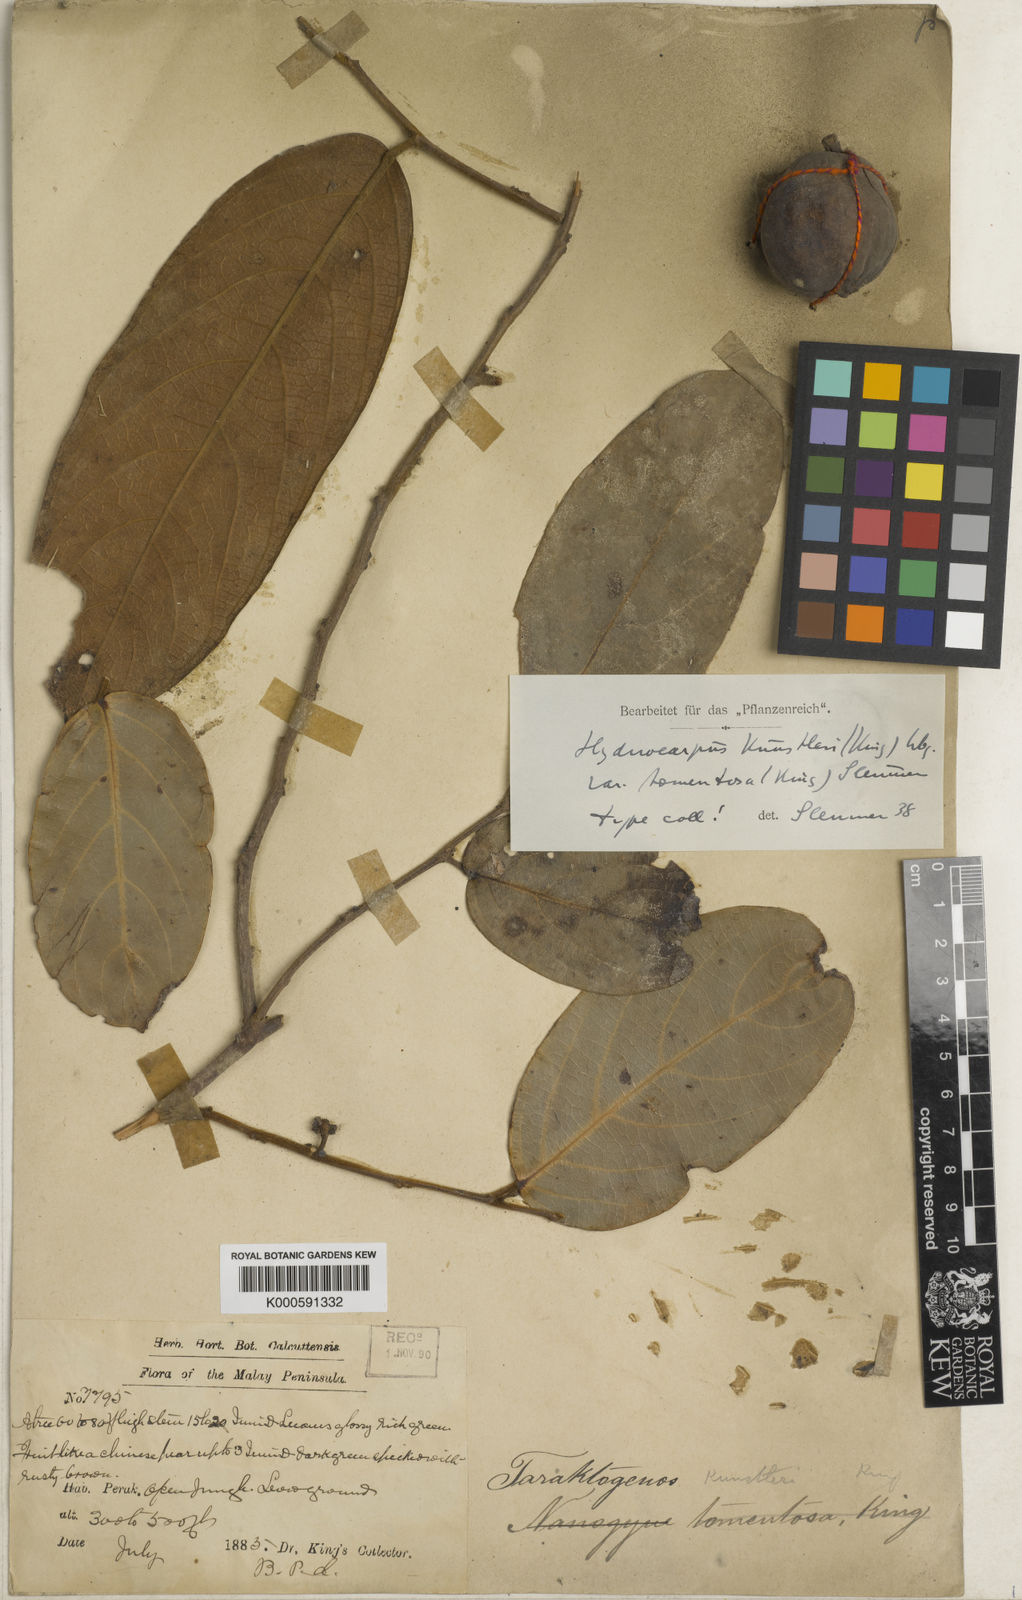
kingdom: Plantae
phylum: Tracheophyta
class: Magnoliopsida
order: Malpighiales
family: Achariaceae
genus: Hydnocarpus
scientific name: Hydnocarpus kunstleri
